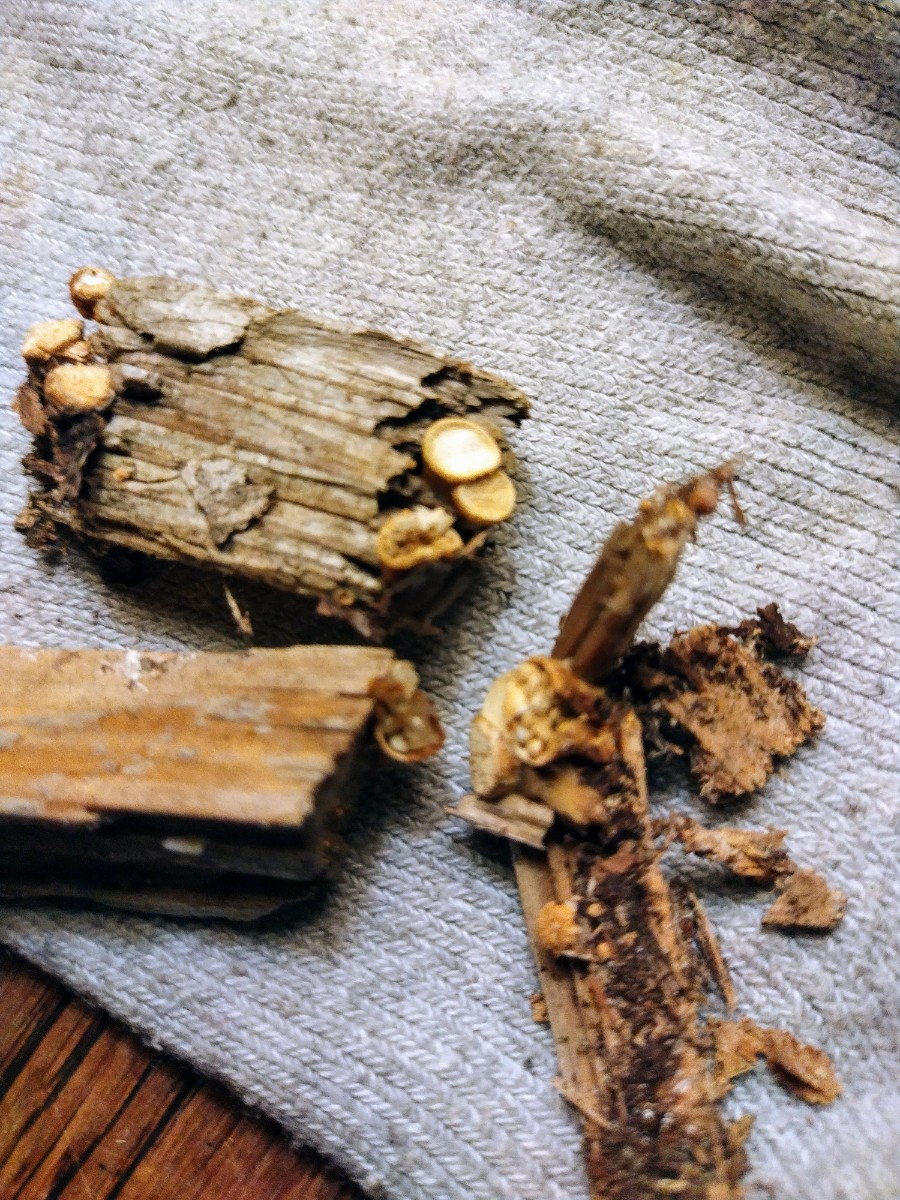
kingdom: Fungi
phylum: Basidiomycota
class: Agaricomycetes
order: Agaricales
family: Nidulariaceae
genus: Crucibulum
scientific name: Crucibulum crucibuliforme
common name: krukkesvamp
